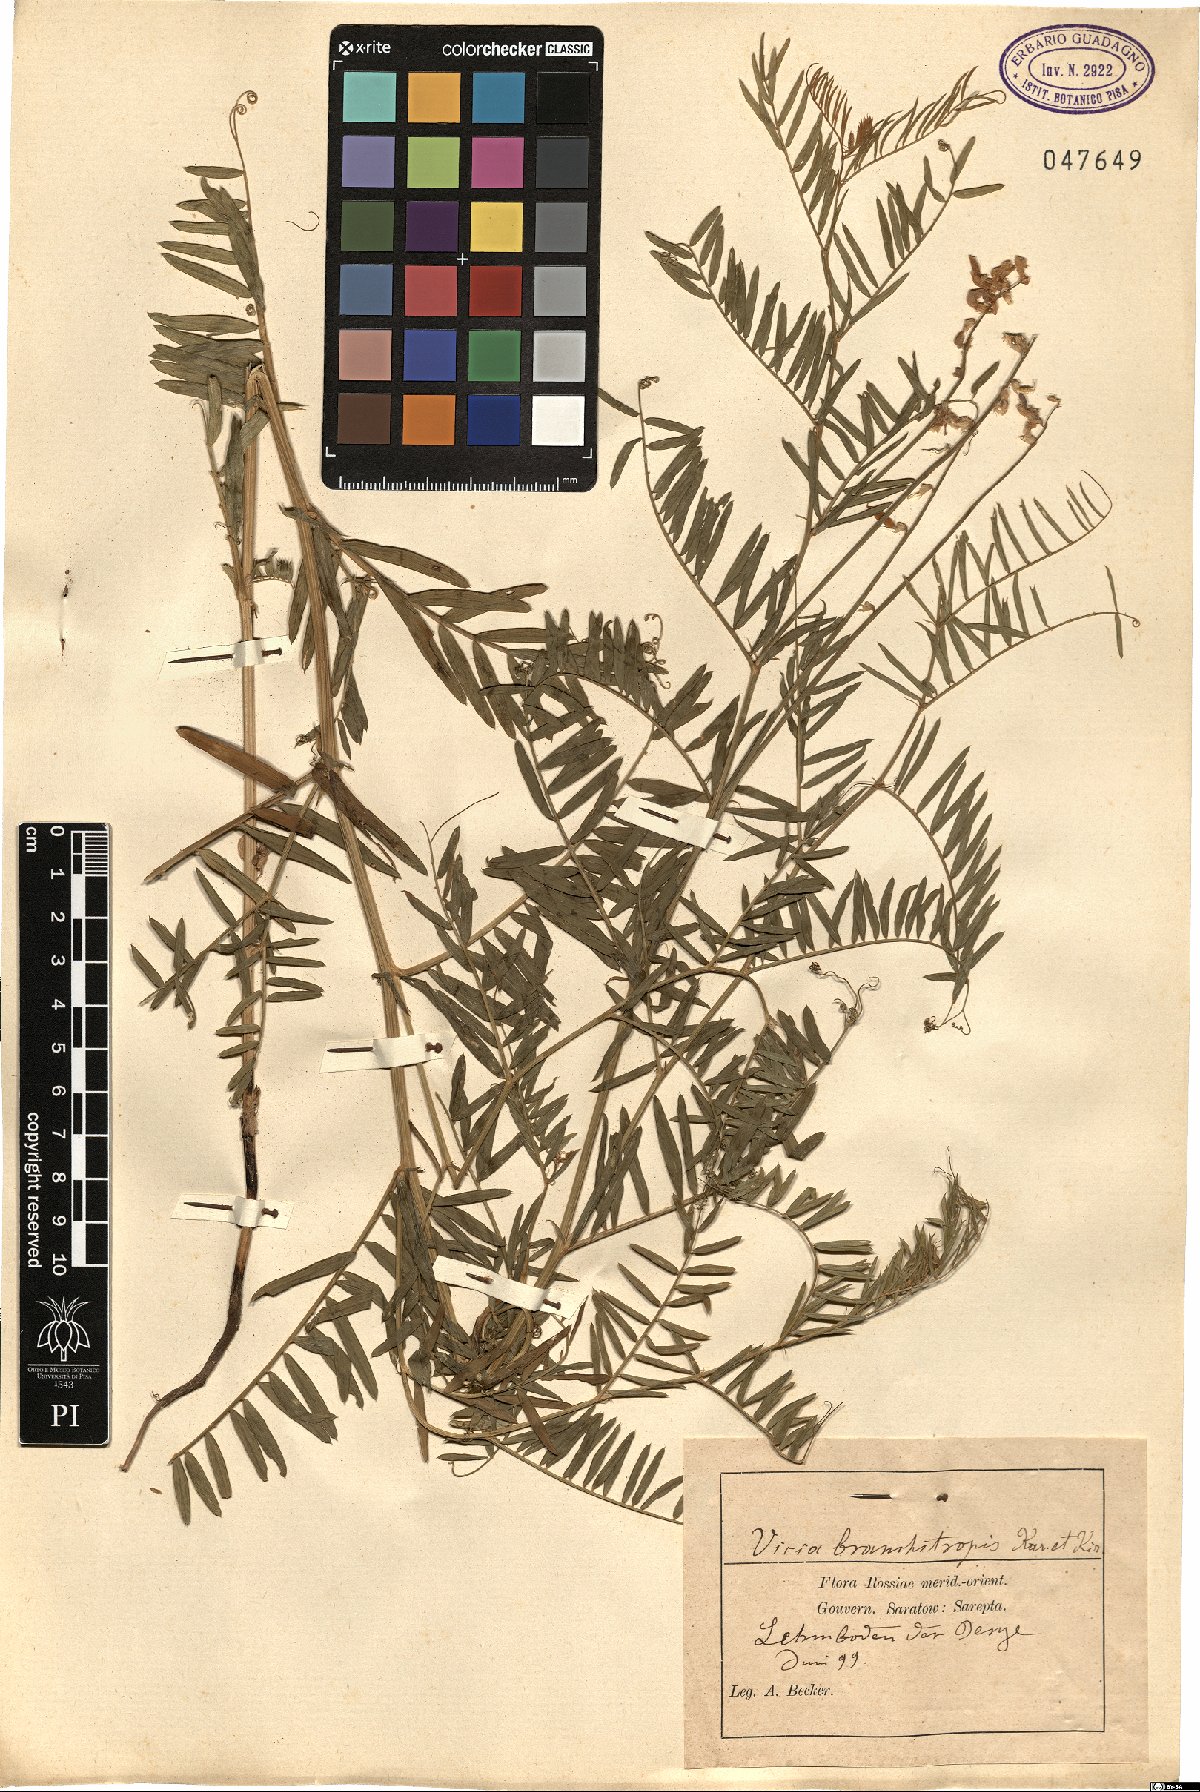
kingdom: Plantae
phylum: Tracheophyta
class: Magnoliopsida
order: Fabales
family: Fabaceae
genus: Vicia
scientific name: Vicia tenuifolia
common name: Fine-leaved vetch
